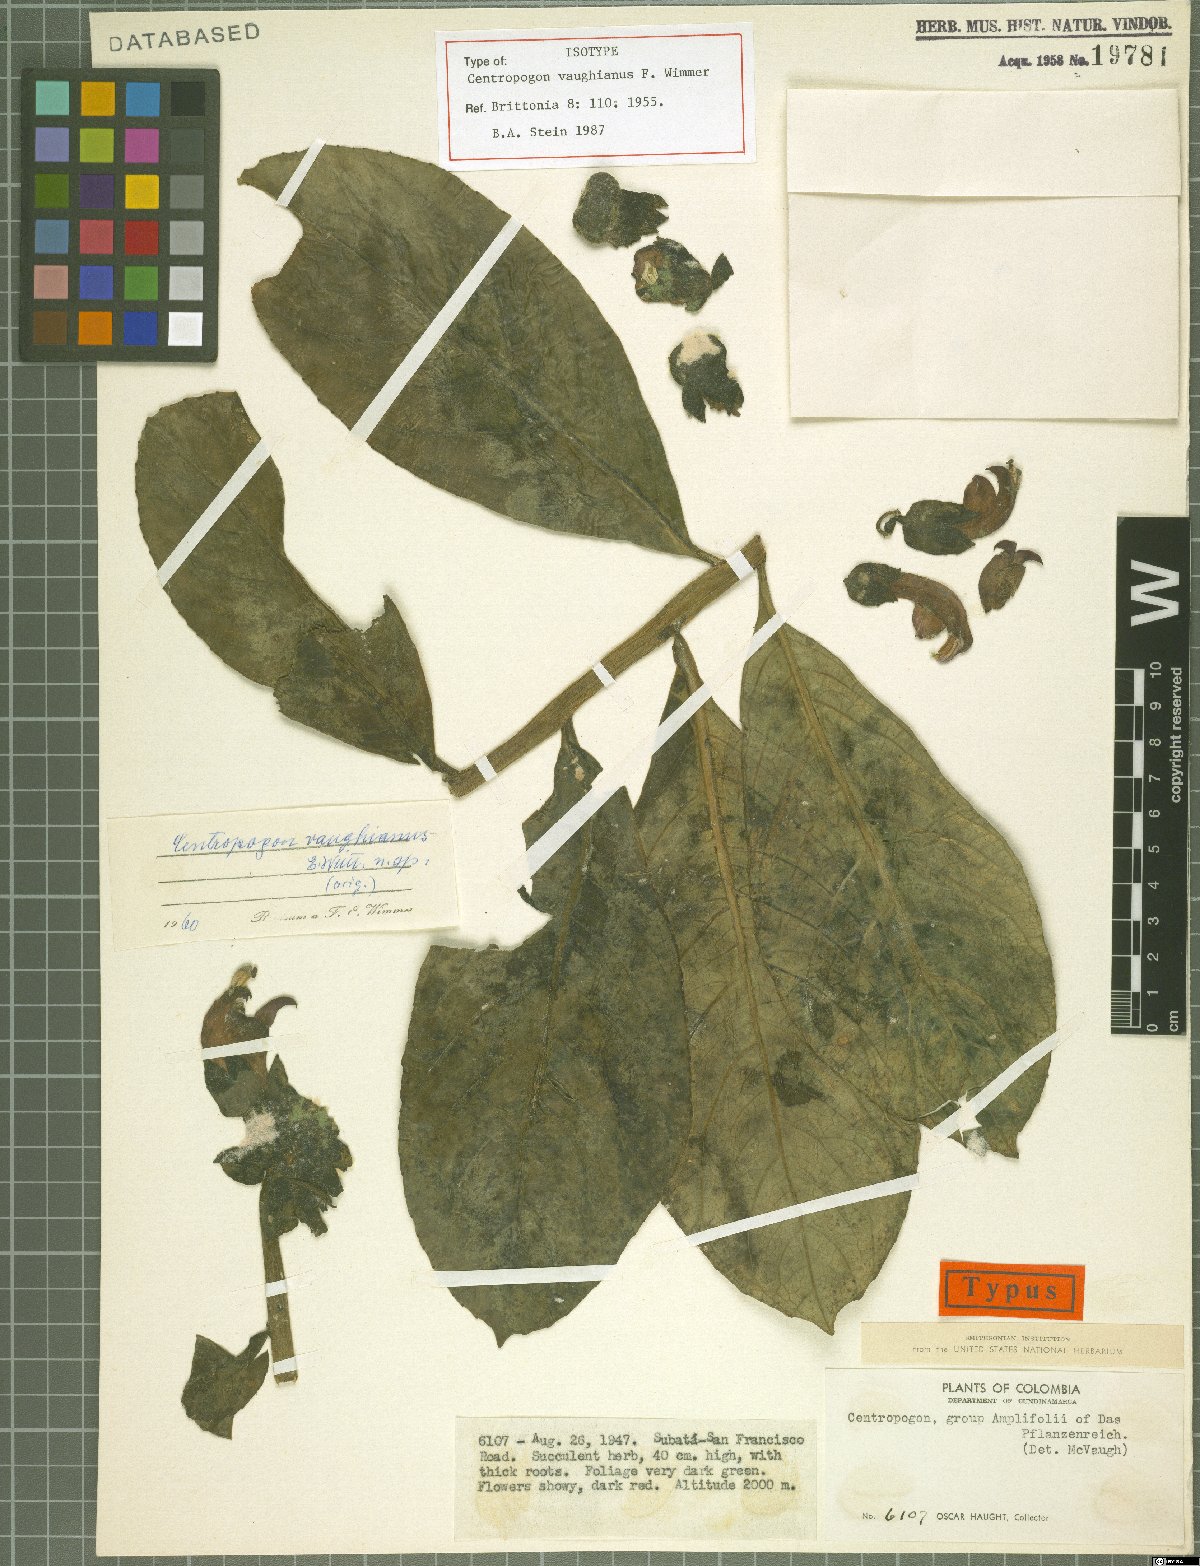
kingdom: Plantae
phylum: Tracheophyta
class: Magnoliopsida
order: Asterales
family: Campanulaceae
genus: Centropogon
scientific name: Centropogon vaughianus
